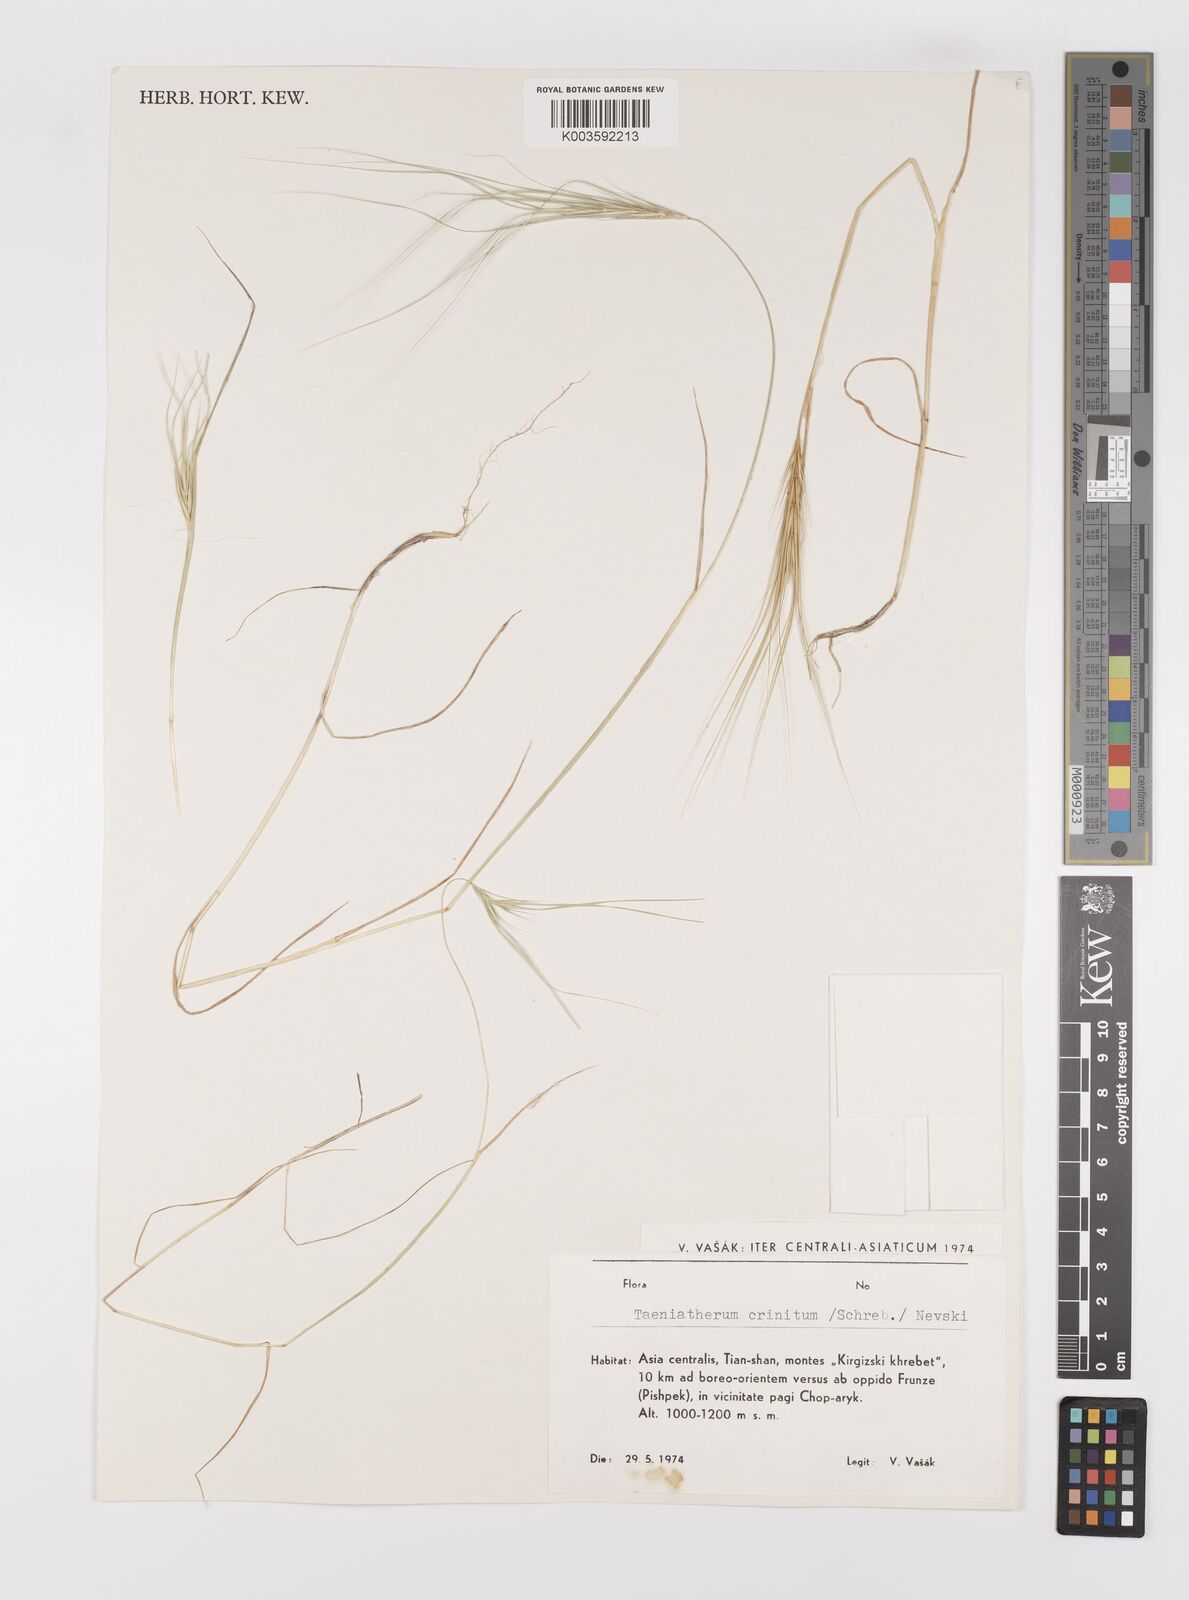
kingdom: Plantae
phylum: Tracheophyta
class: Liliopsida
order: Poales
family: Poaceae
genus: Taeniatherum
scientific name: Taeniatherum caput-medusae
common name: Medusahead
